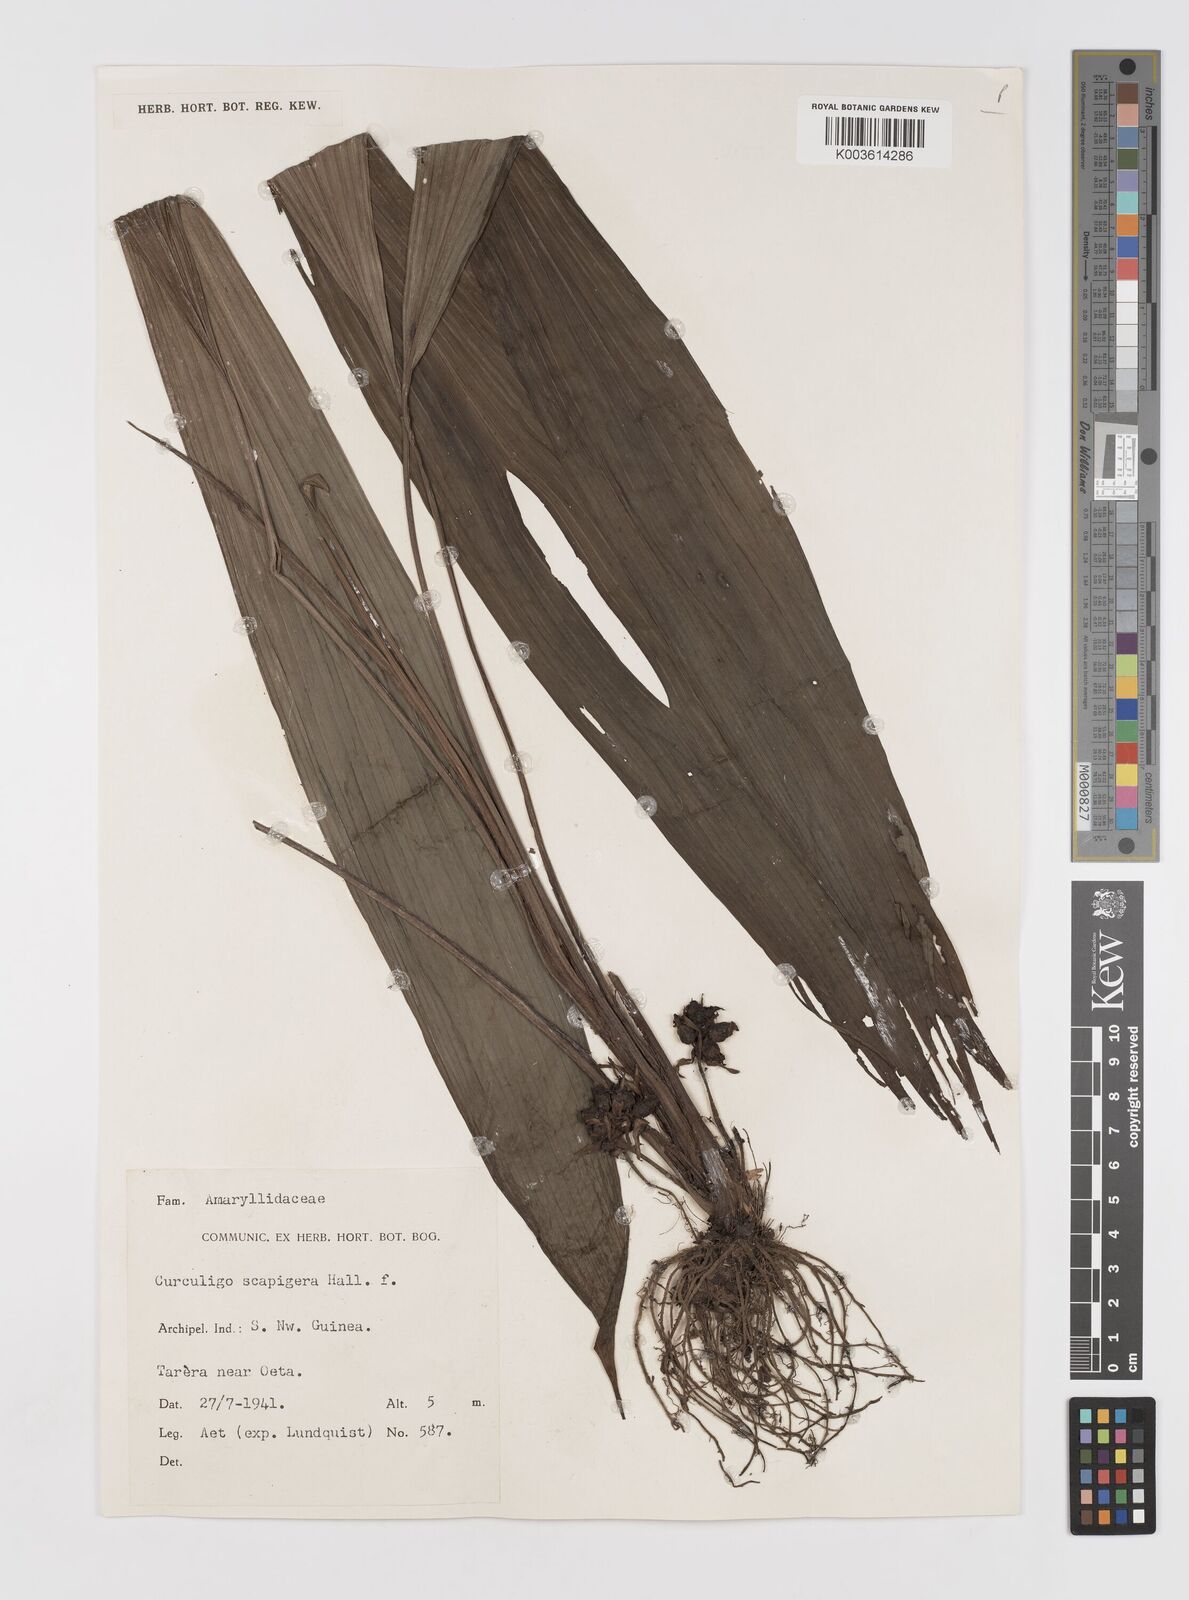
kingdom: Plantae
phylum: Tracheophyta
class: Liliopsida
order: Asparagales
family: Hypoxidaceae
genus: Curculigo
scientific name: Curculigo erecta
